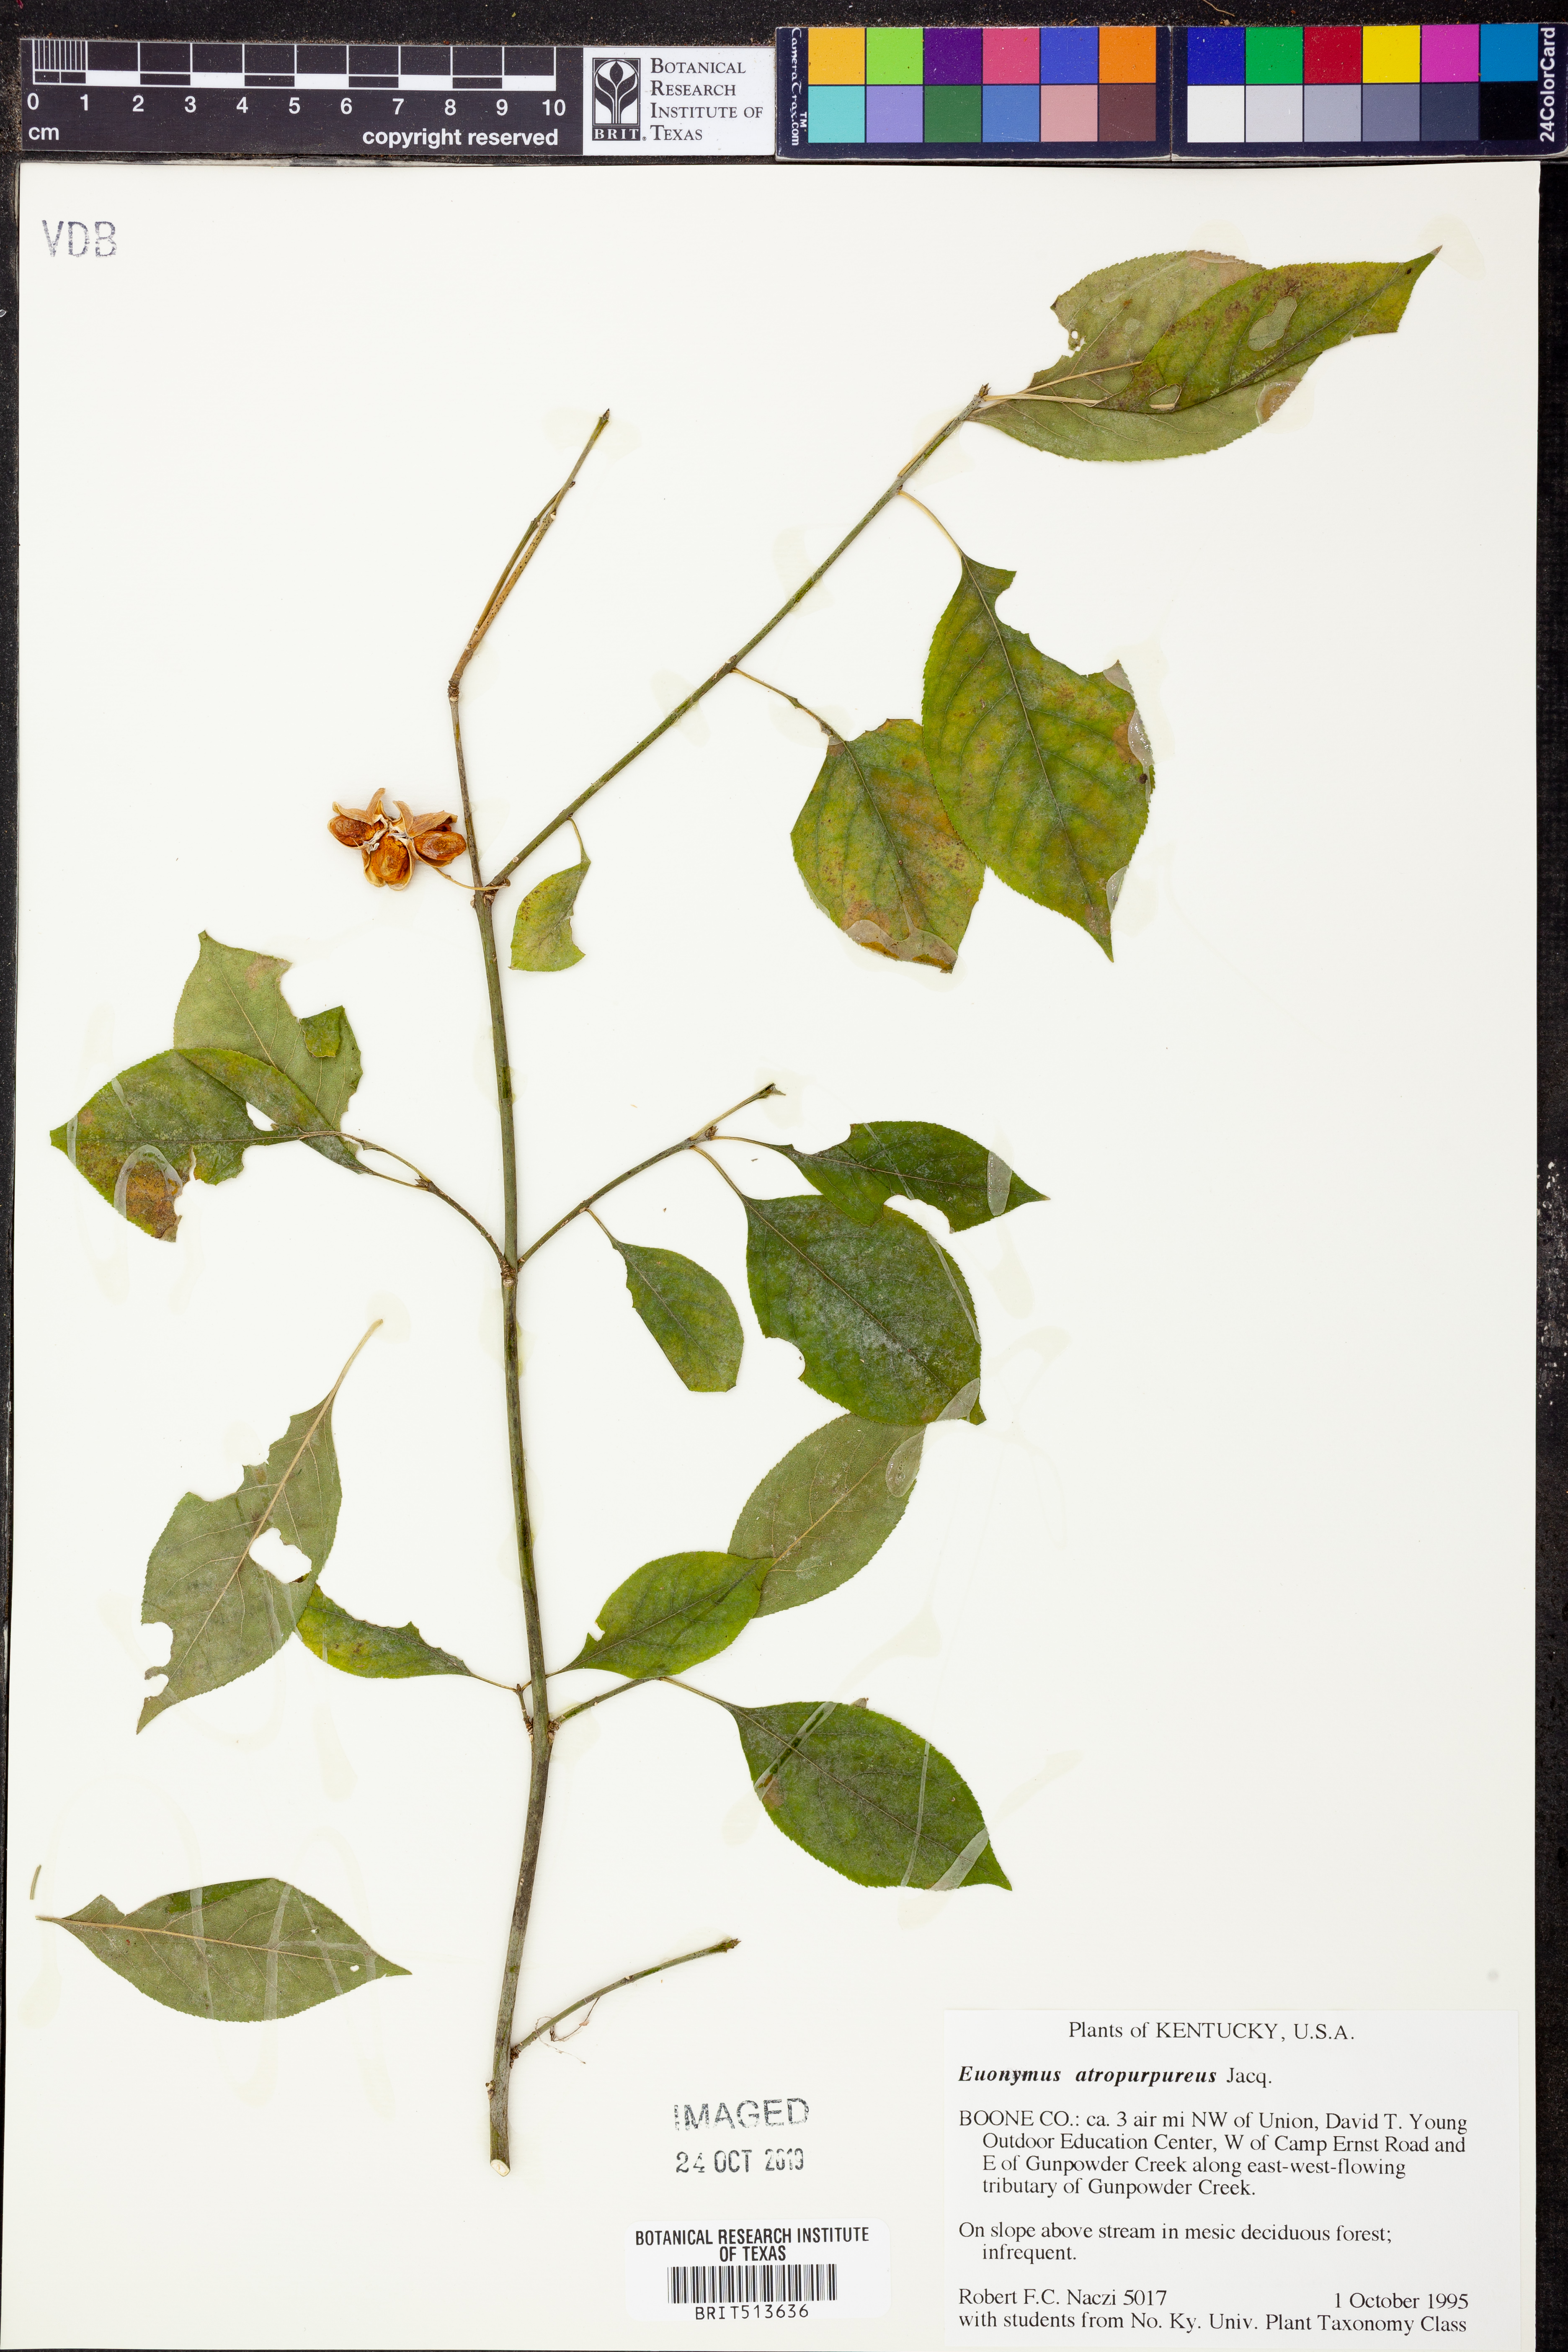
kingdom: Plantae
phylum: Tracheophyta
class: Magnoliopsida
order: Celastrales
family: Celastraceae
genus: Euonymus
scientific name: Euonymus atropurpureus
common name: Eastern wahoo
